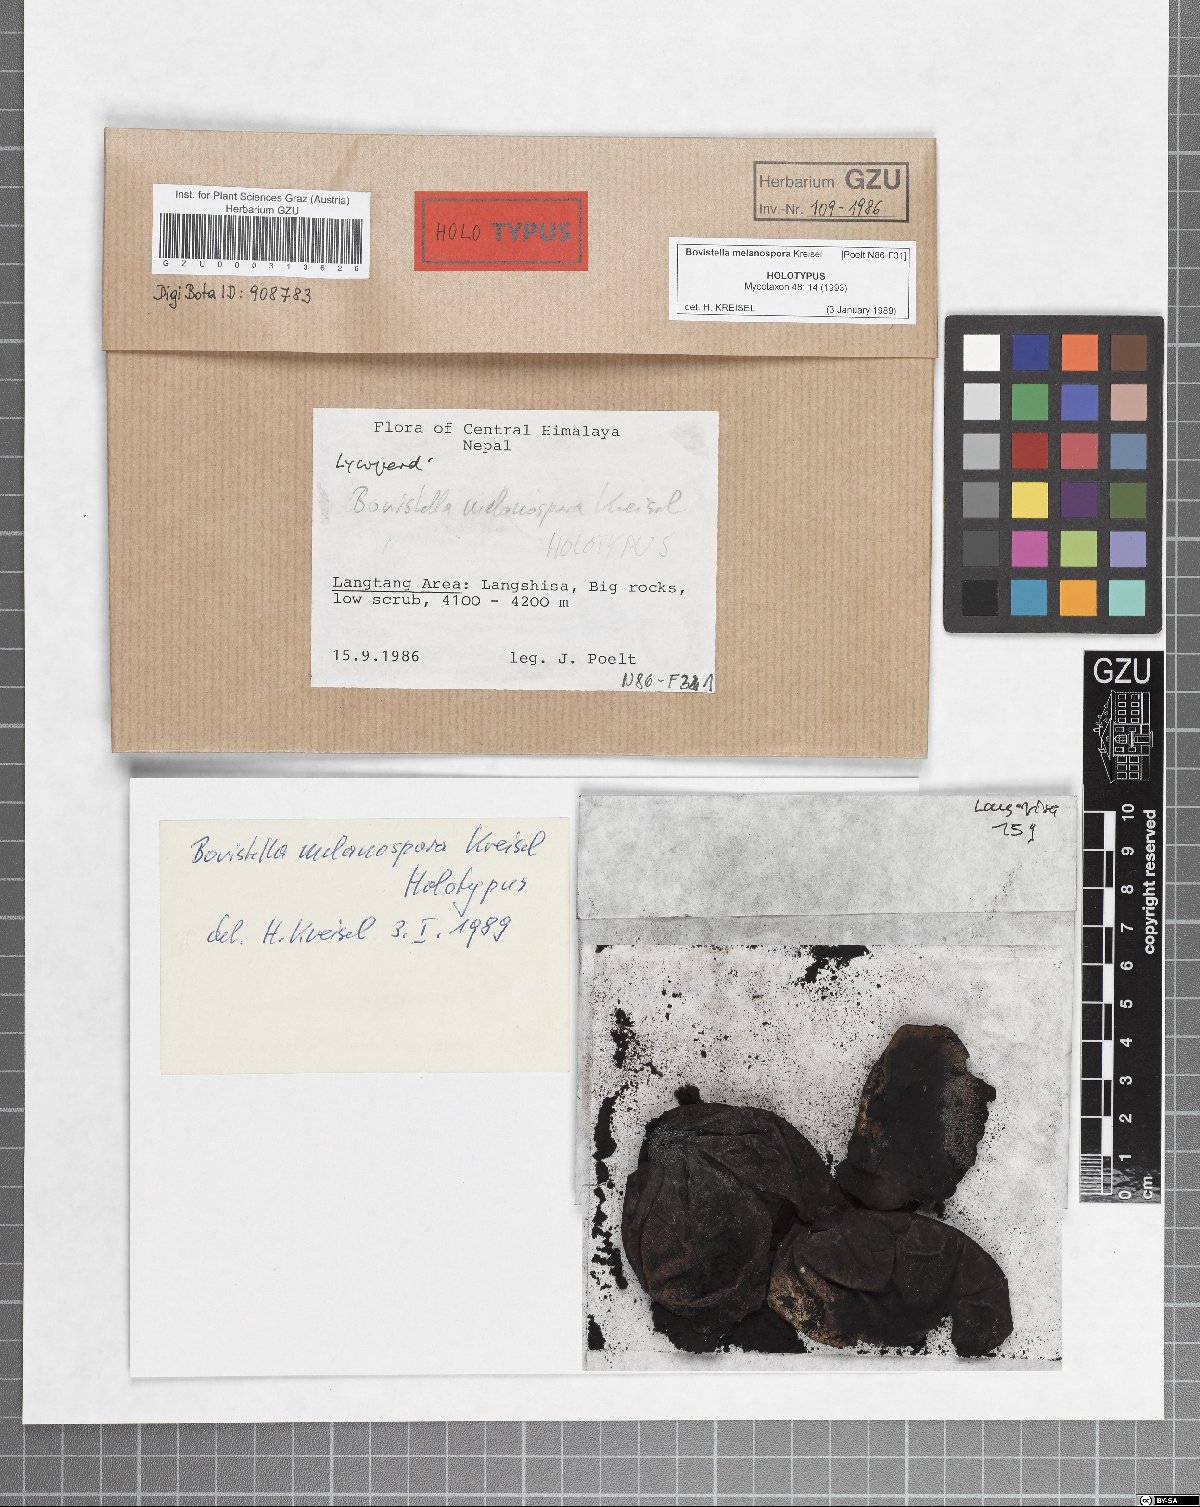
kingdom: Fungi
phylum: Basidiomycota
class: Agaricomycetes
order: Agaricales
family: Lycoperdaceae
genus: Bovistella
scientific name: Bovistella melanospora
